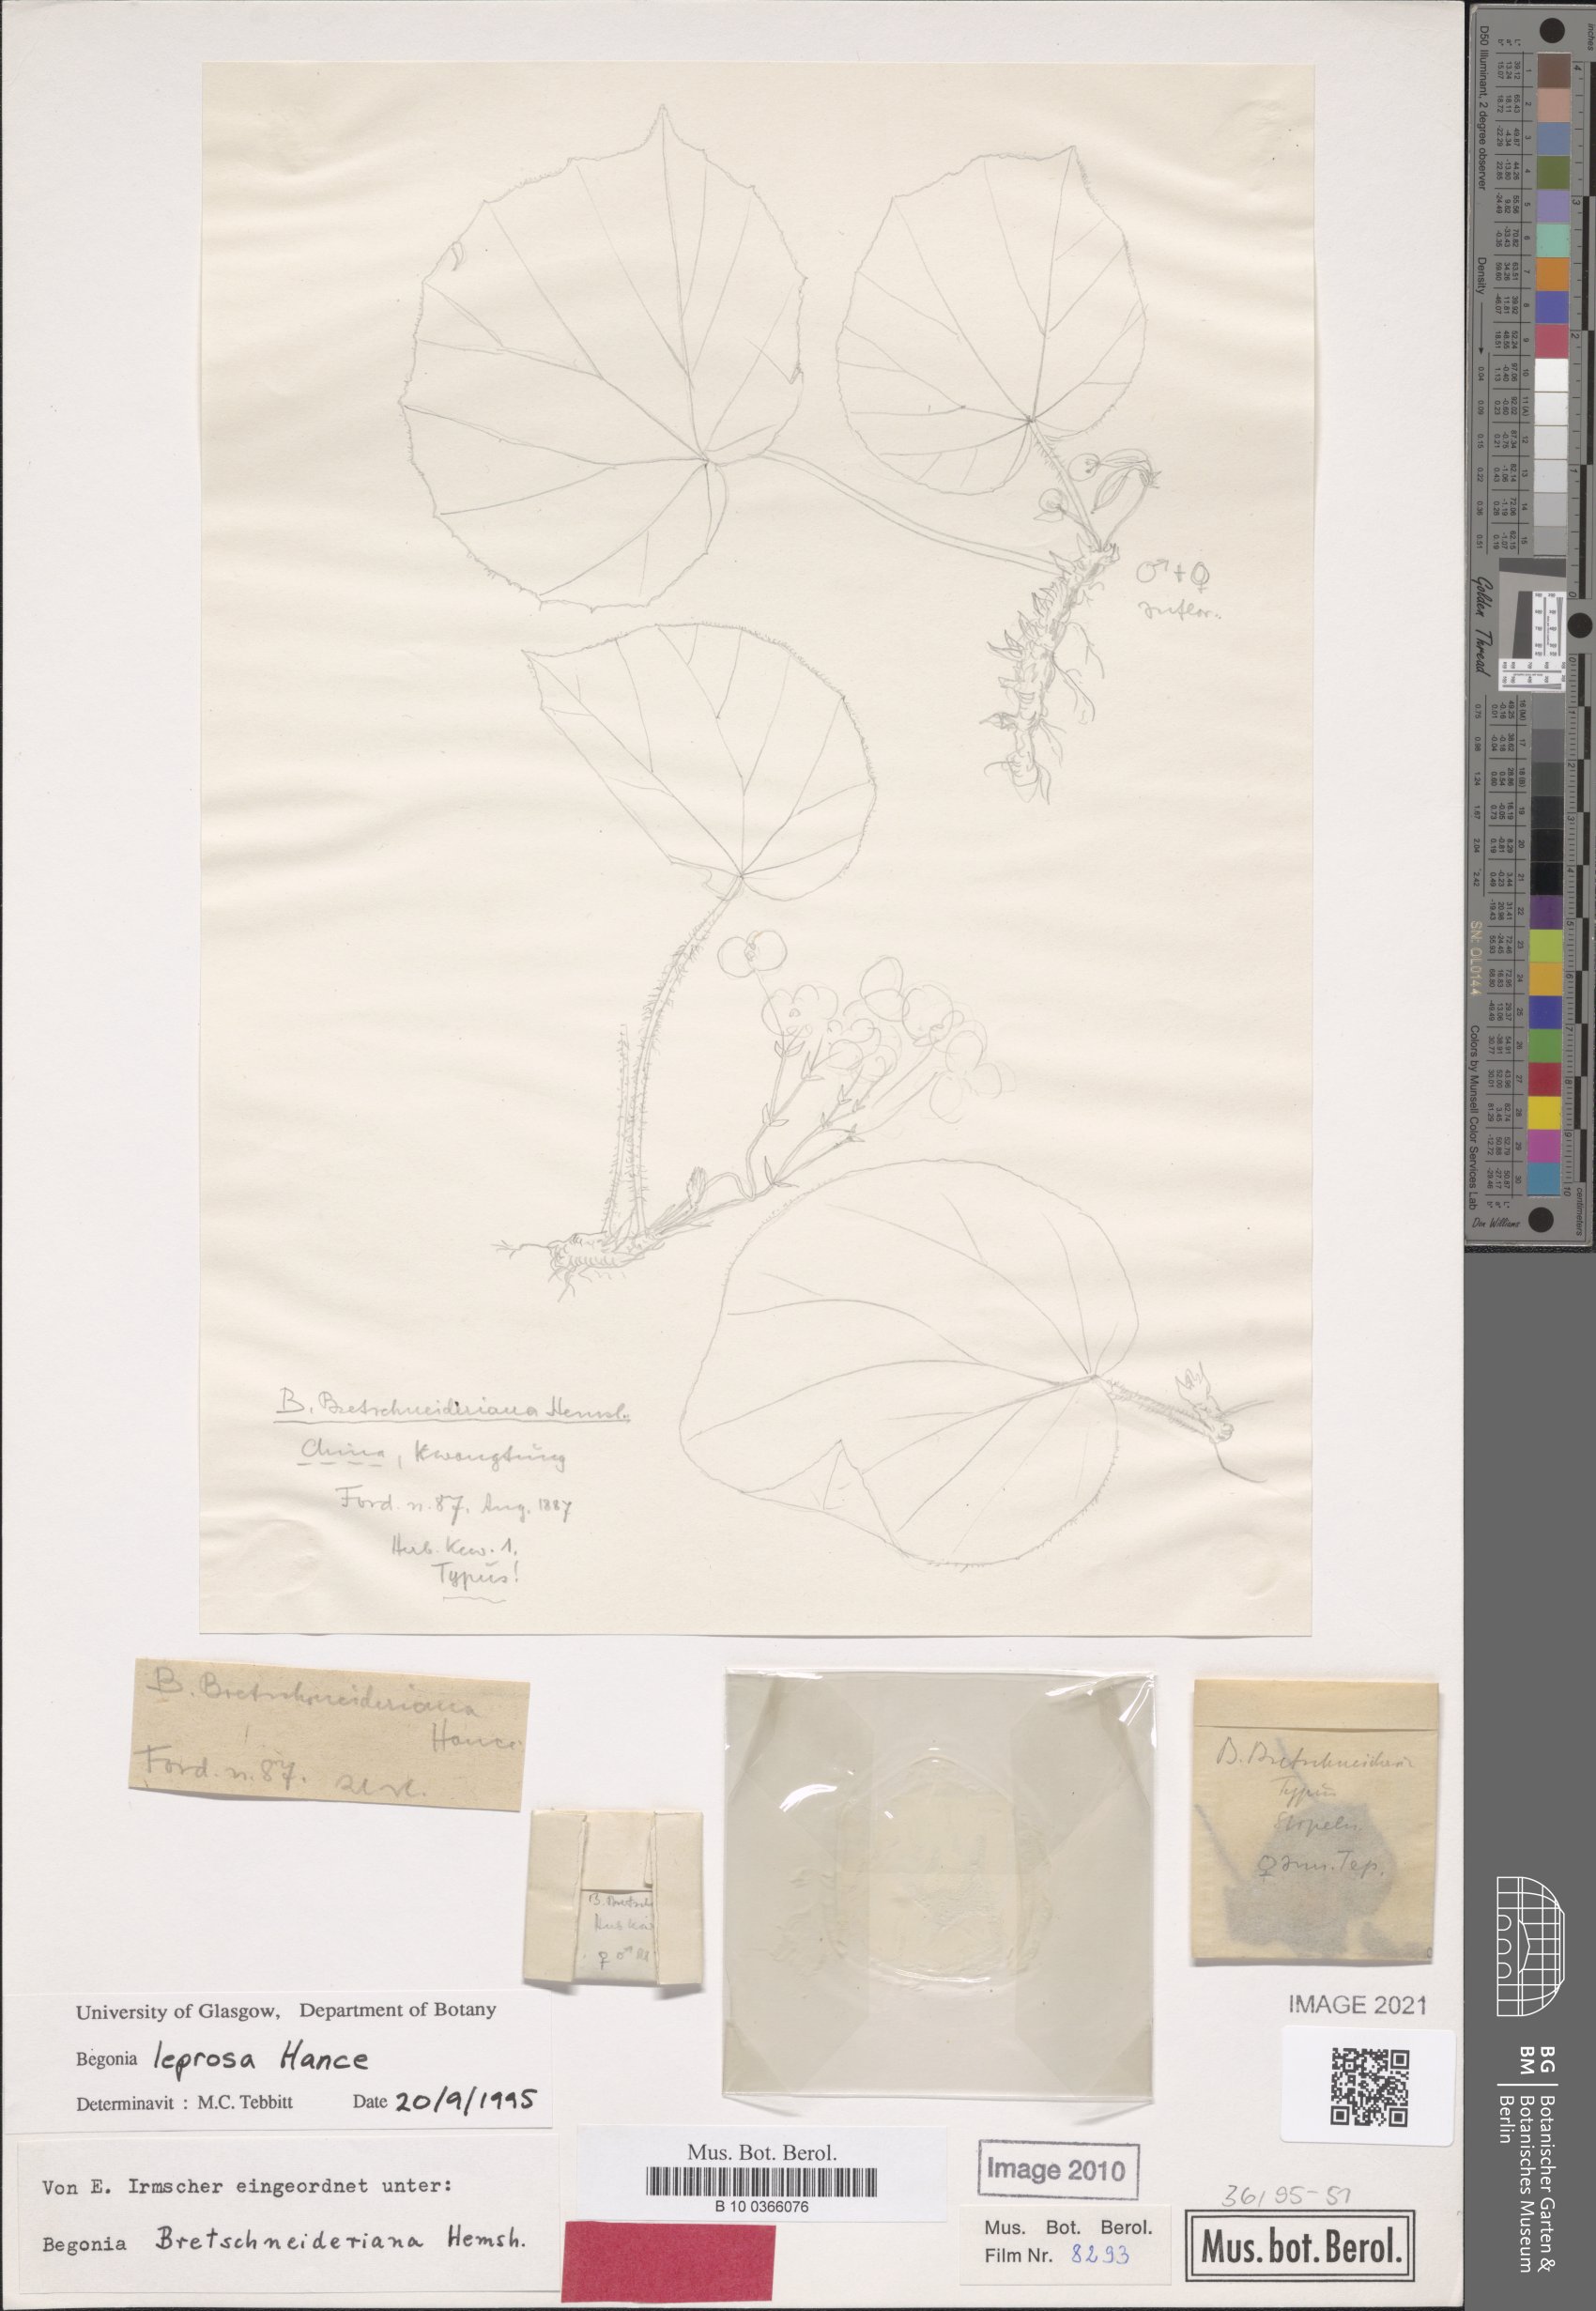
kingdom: Plantae
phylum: Tracheophyta
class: Magnoliopsida
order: Cucurbitales
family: Begoniaceae
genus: Begonia
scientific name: Begonia leprosa
